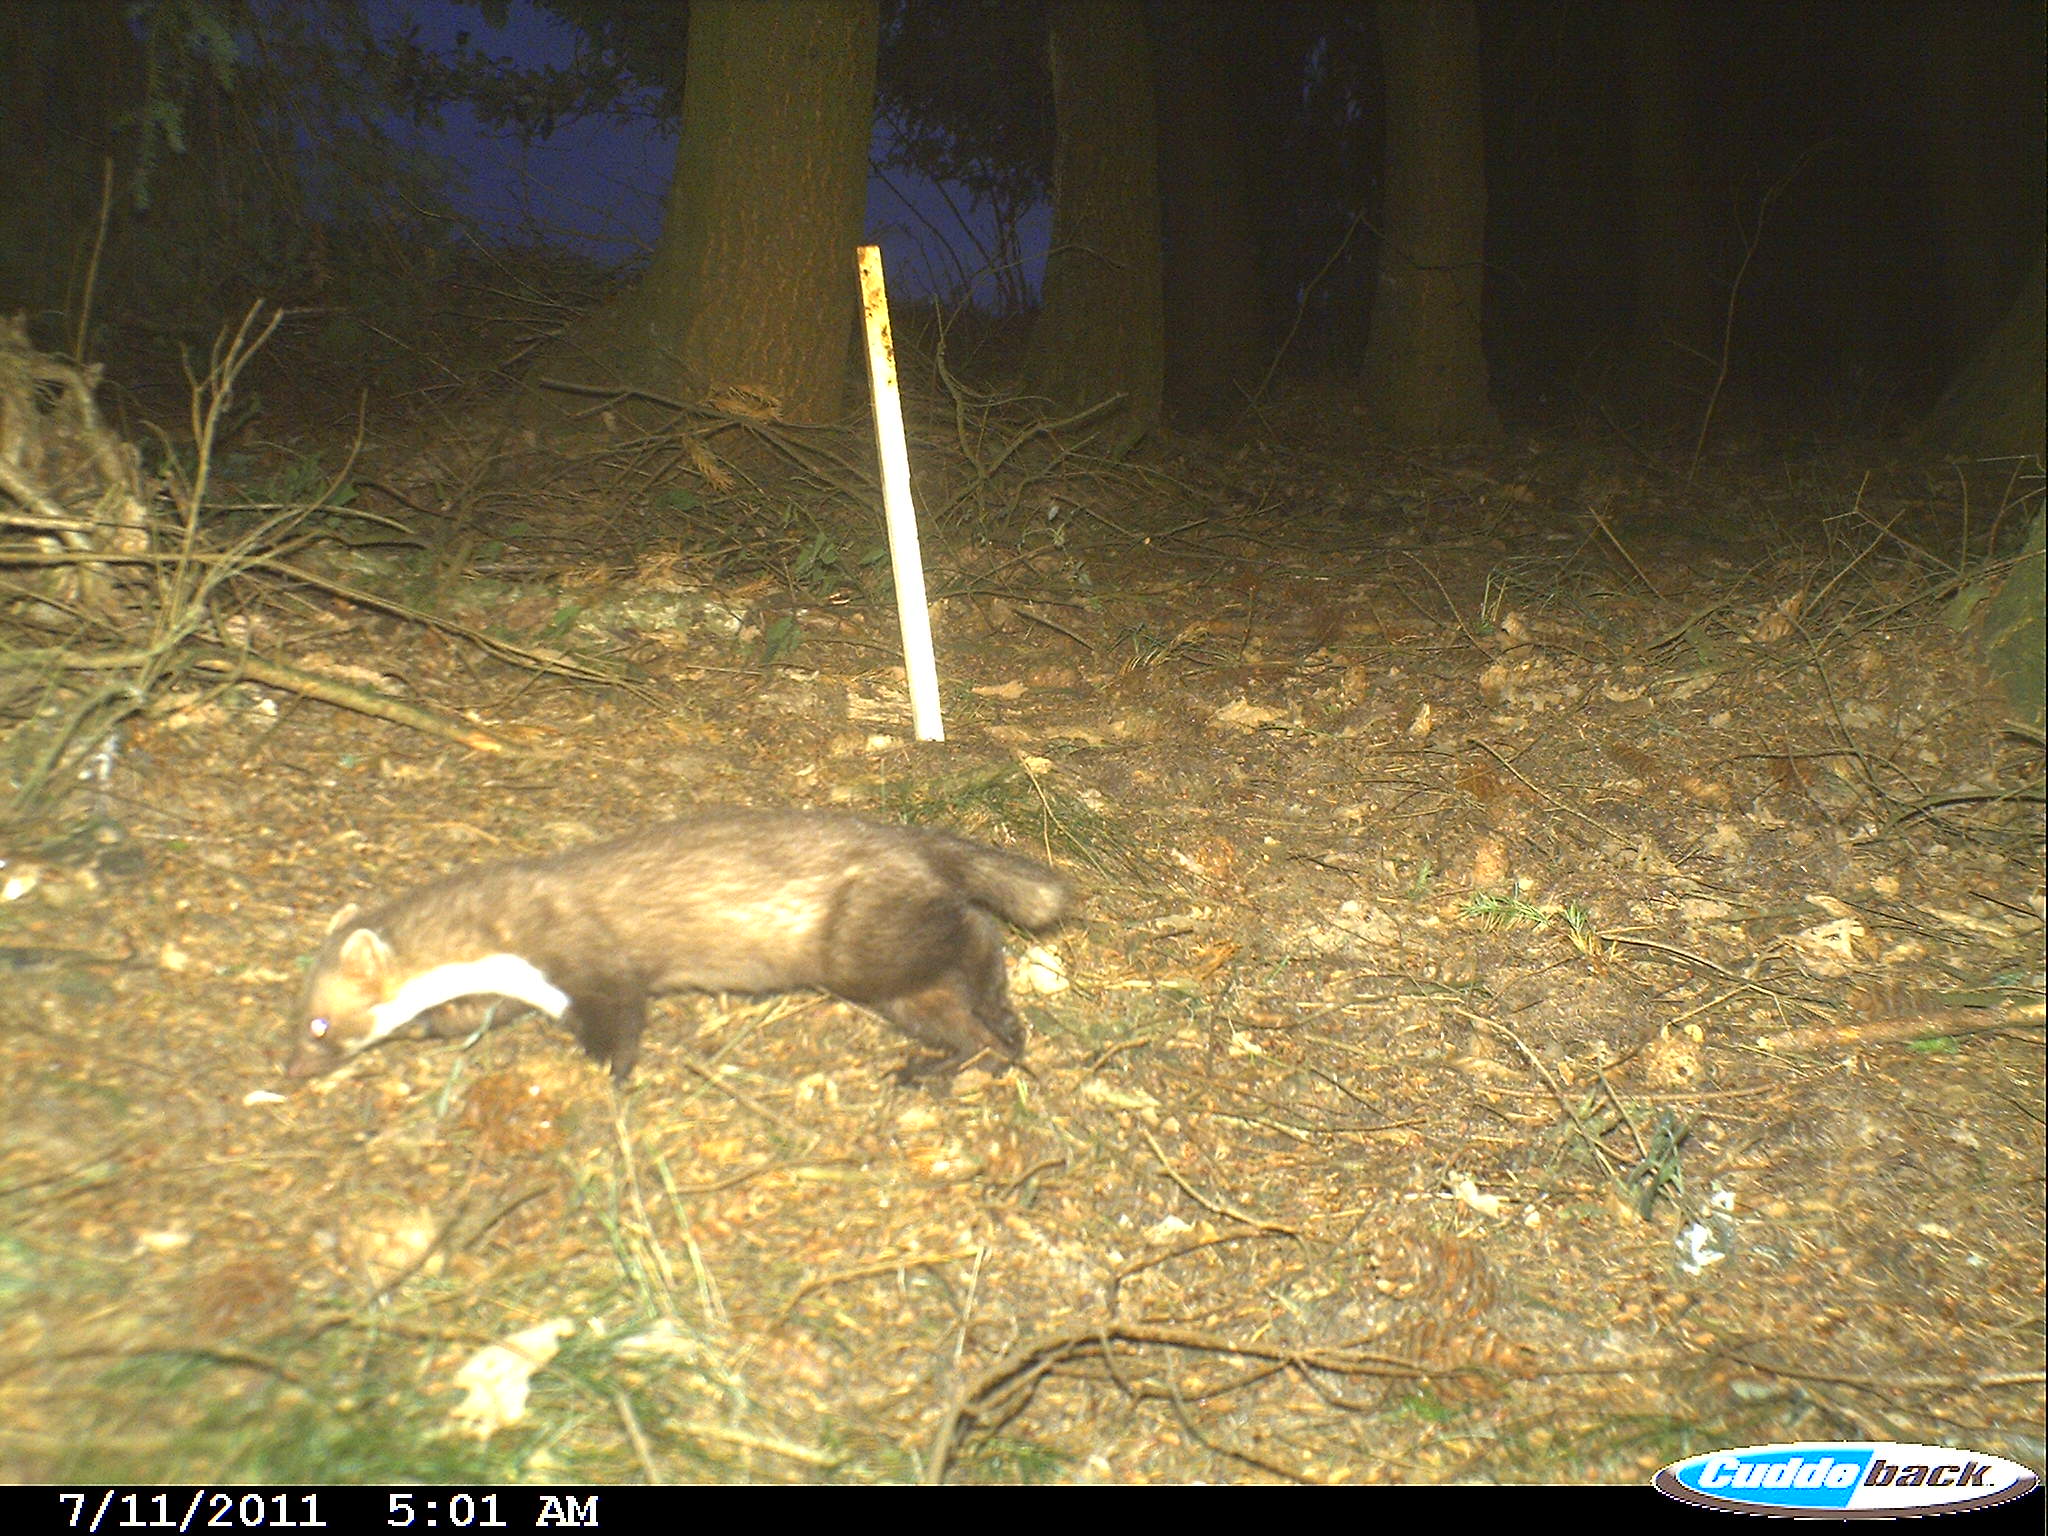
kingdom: Animalia
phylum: Chordata
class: Mammalia
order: Carnivora
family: Mustelidae
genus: Martes
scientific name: Martes foina
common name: Beech marten
